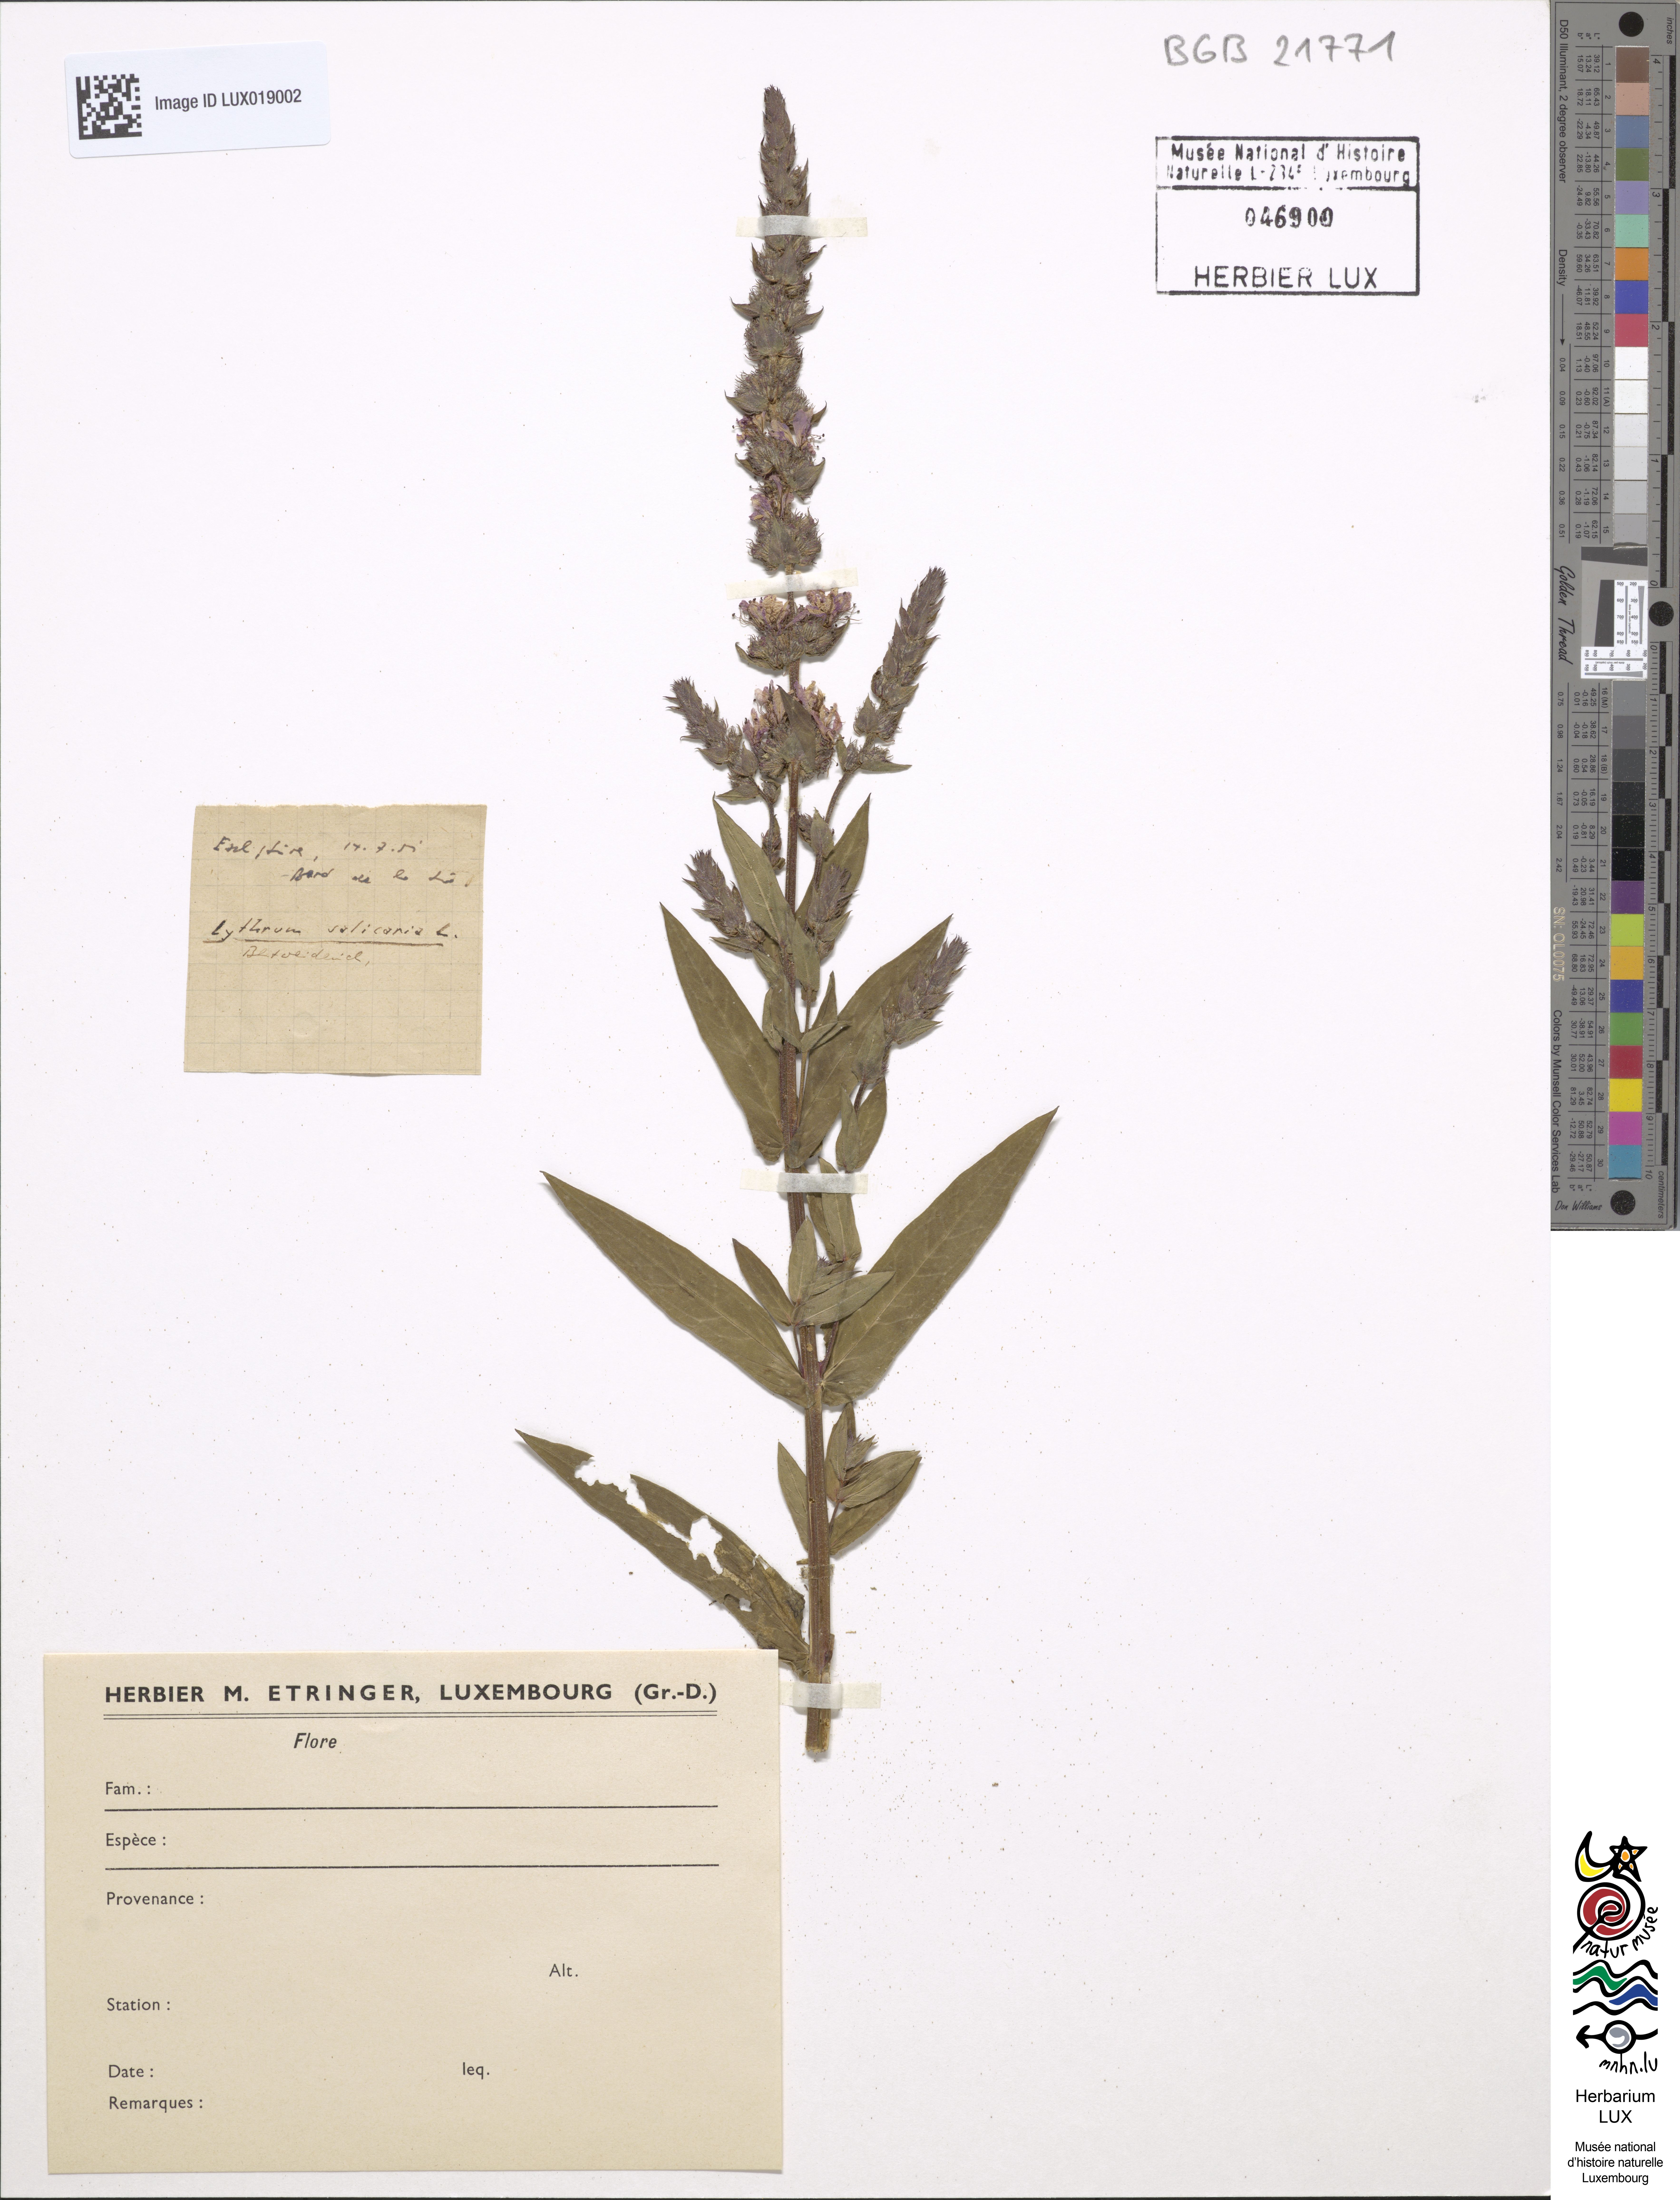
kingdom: Plantae
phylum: Tracheophyta
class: Magnoliopsida
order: Myrtales
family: Lythraceae
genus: Lythrum
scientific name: Lythrum salicaria
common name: Purple loosestrife
